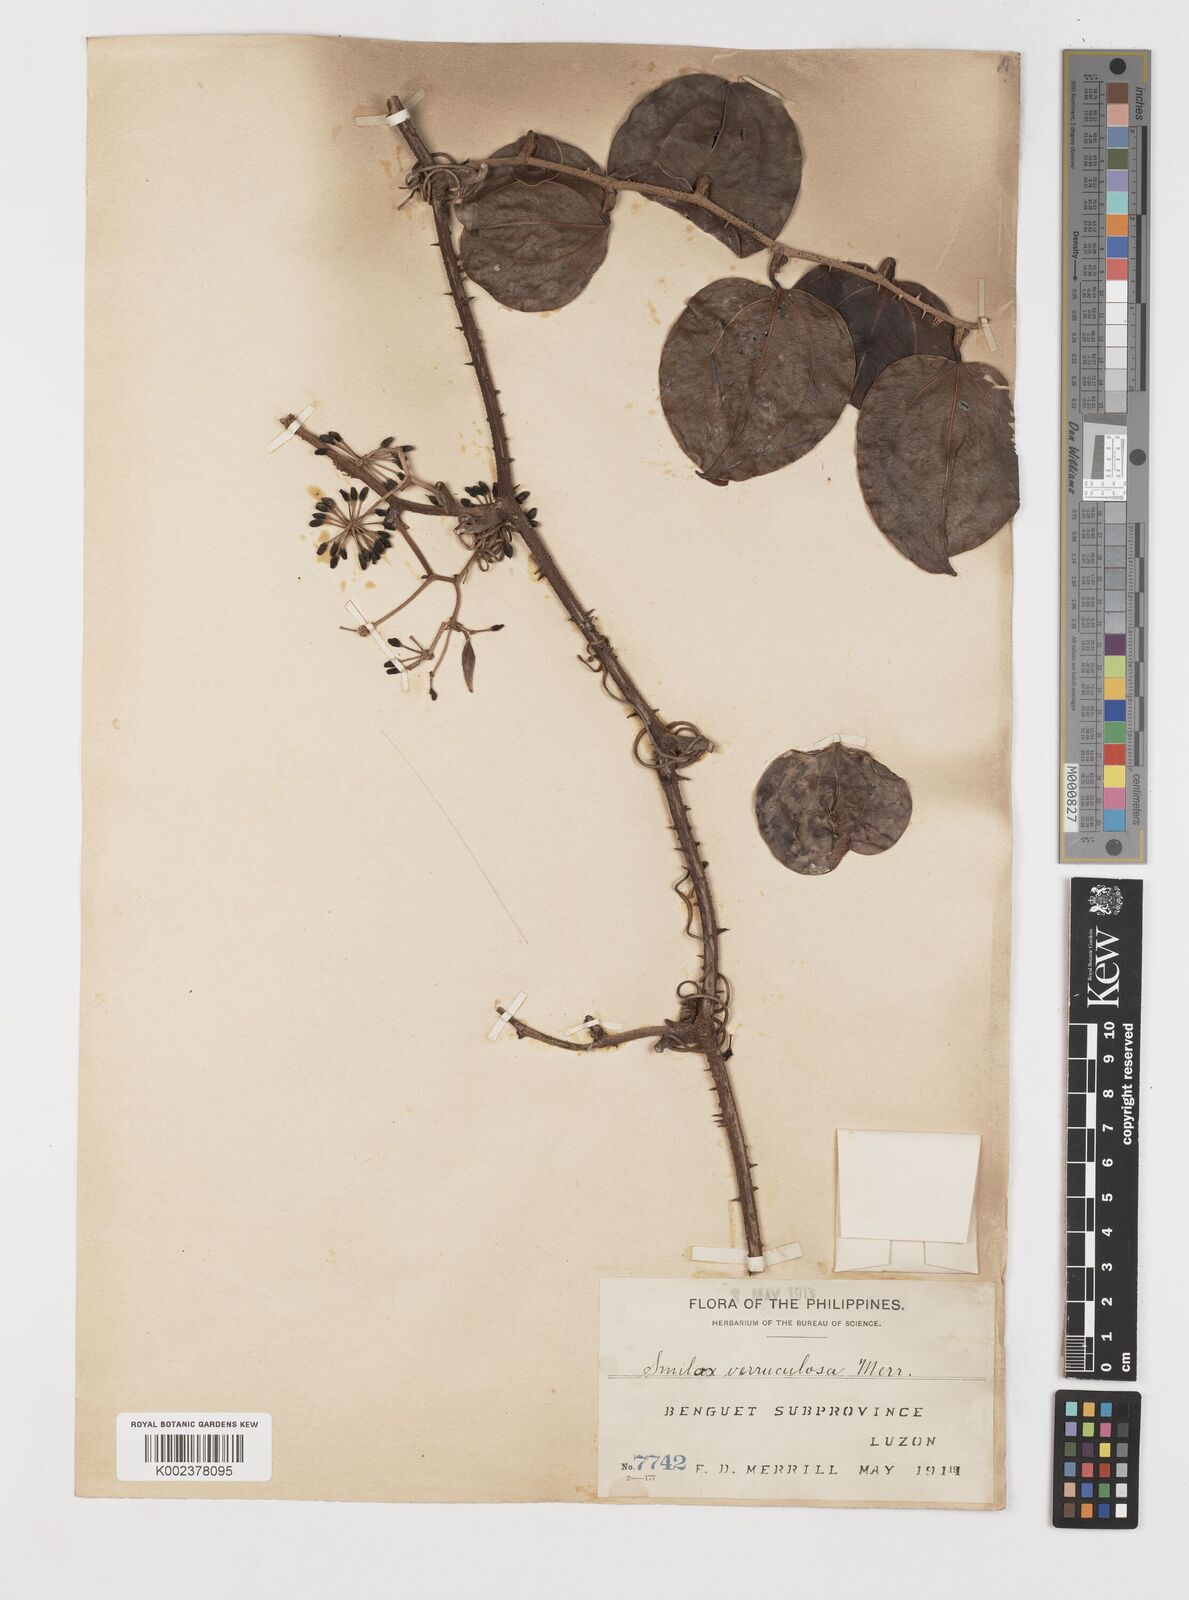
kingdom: Plantae
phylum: Tracheophyta
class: Liliopsida
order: Liliales
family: Smilacaceae
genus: Smilax
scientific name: Smilax aspericaulis
